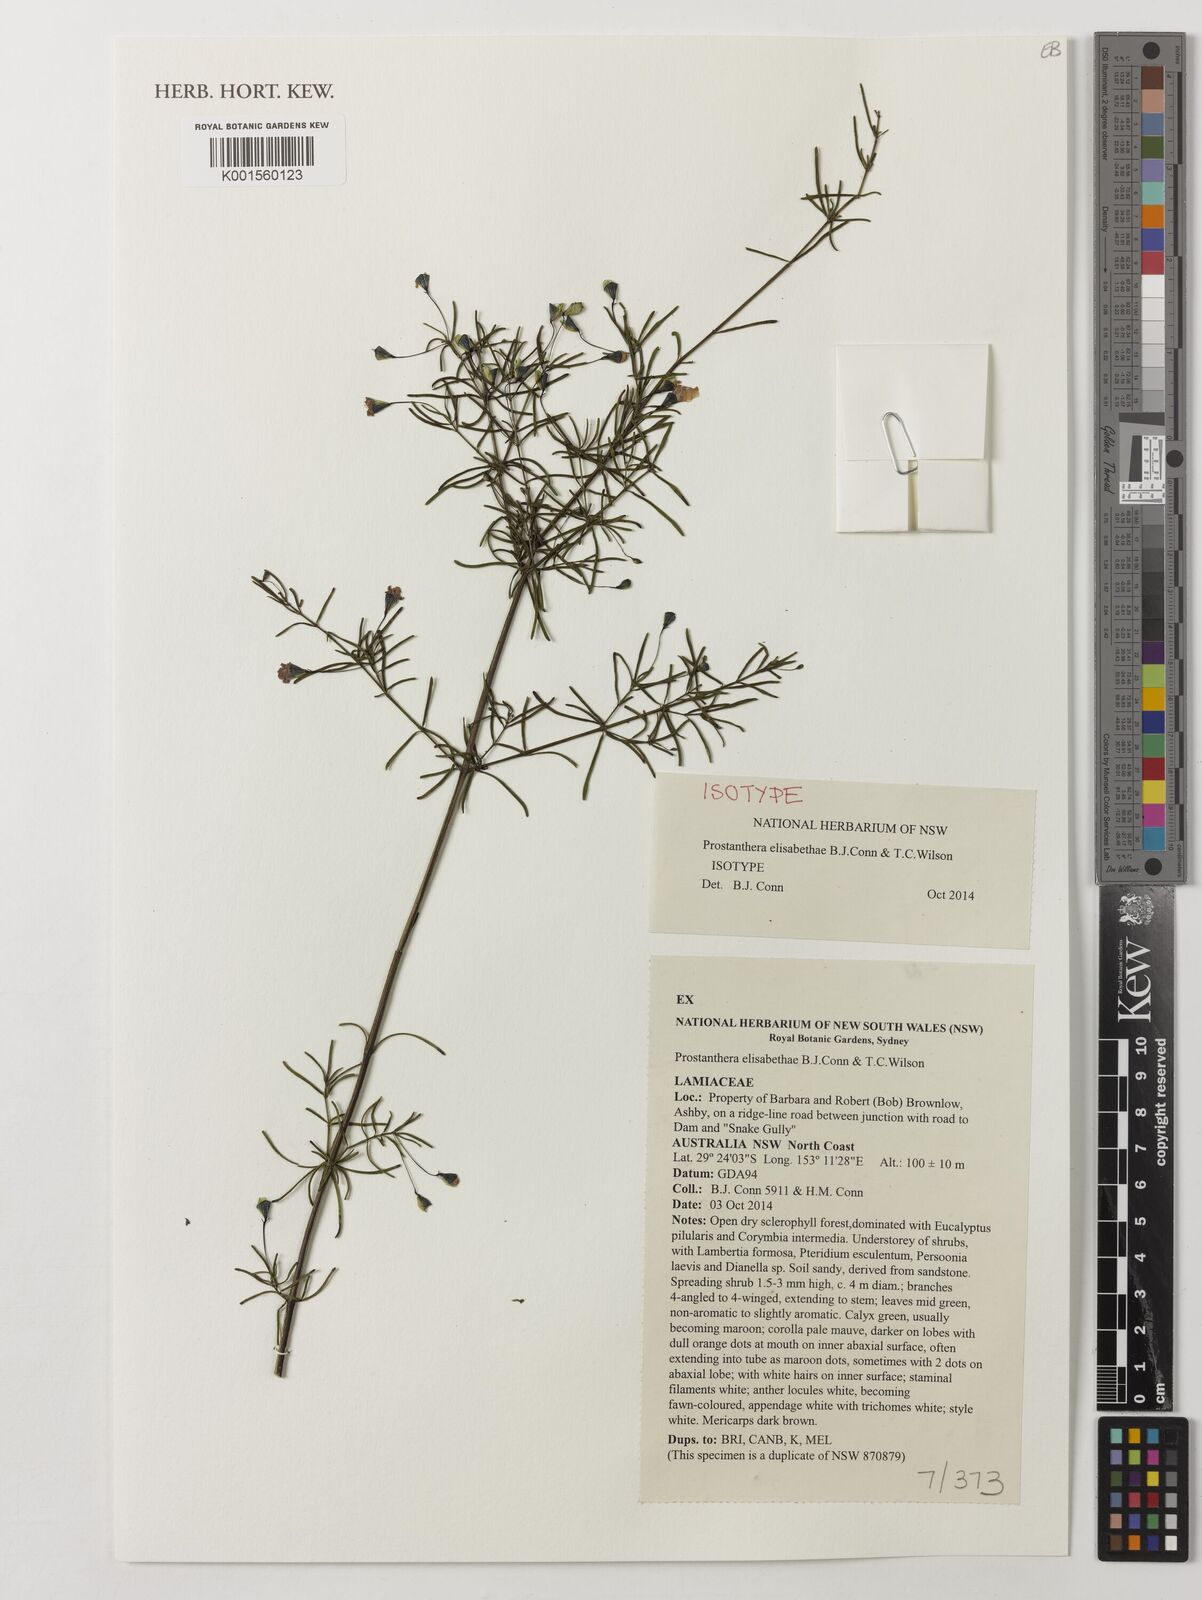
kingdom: Plantae
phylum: Tracheophyta
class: Magnoliopsida
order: Lamiales
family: Lamiaceae
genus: Prostanthera
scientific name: Prostanthera elisabethae
